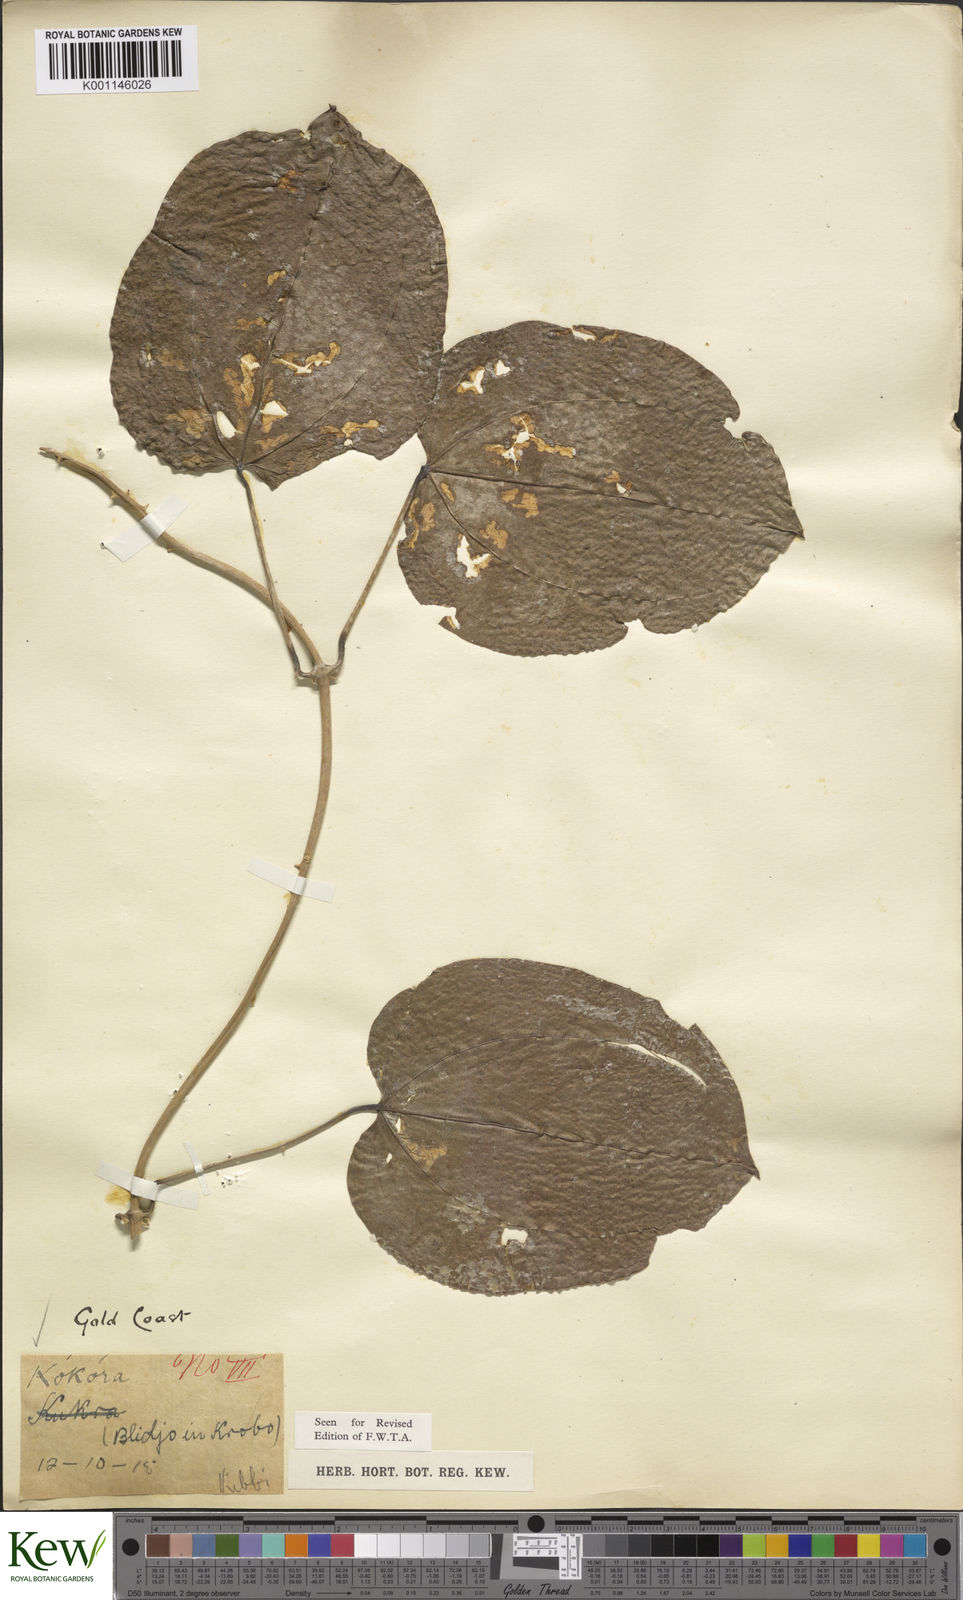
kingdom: Plantae
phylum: Tracheophyta
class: Liliopsida
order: Dioscoreales
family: Dioscoreaceae
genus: Dioscorea
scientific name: Dioscorea minutiflora
